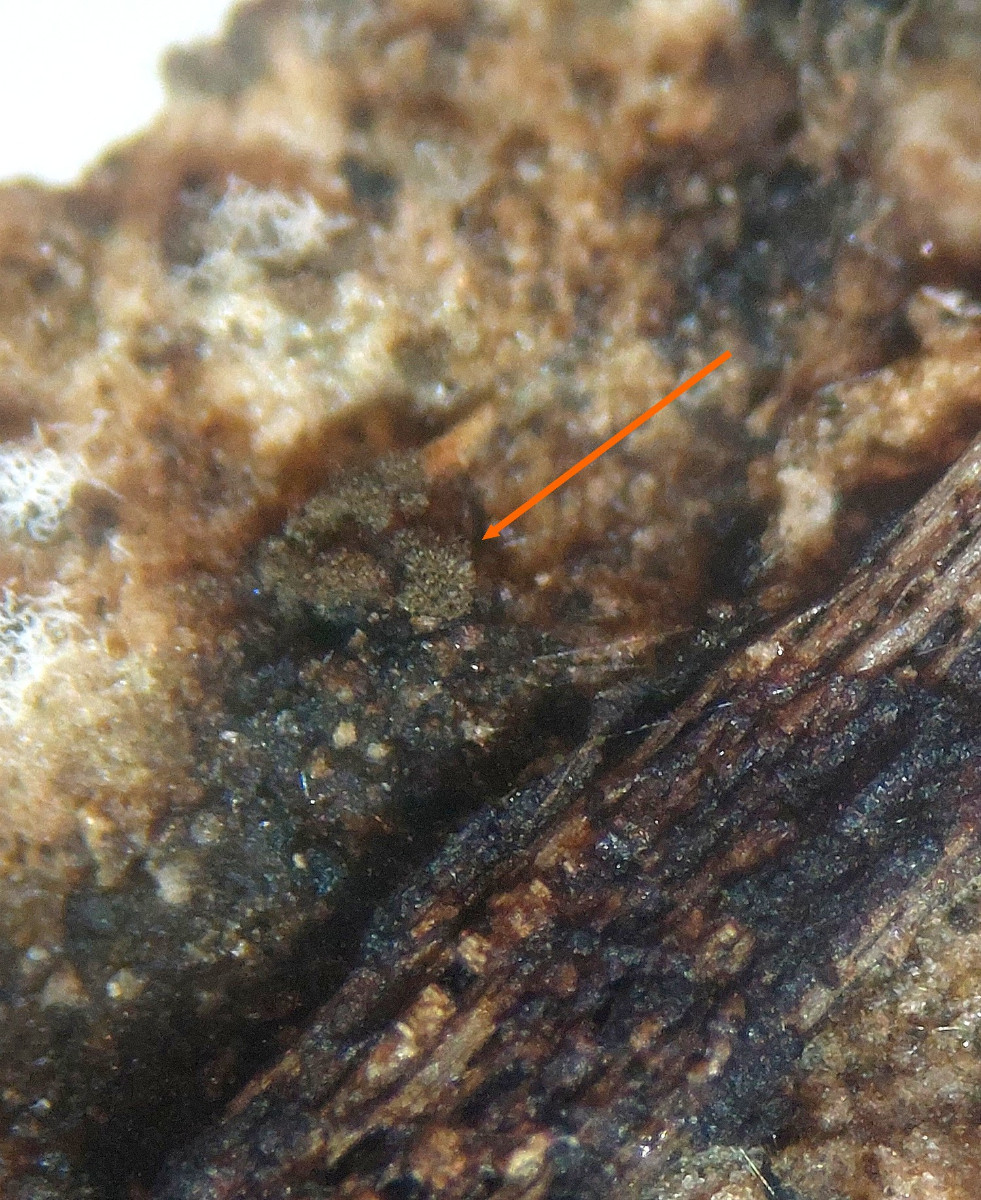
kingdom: Fungi
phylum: Ascomycota
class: Dothideomycetes
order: Tubeufiales
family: Tubeufiaceae
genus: Helicoma
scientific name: Helicoma fumosum
